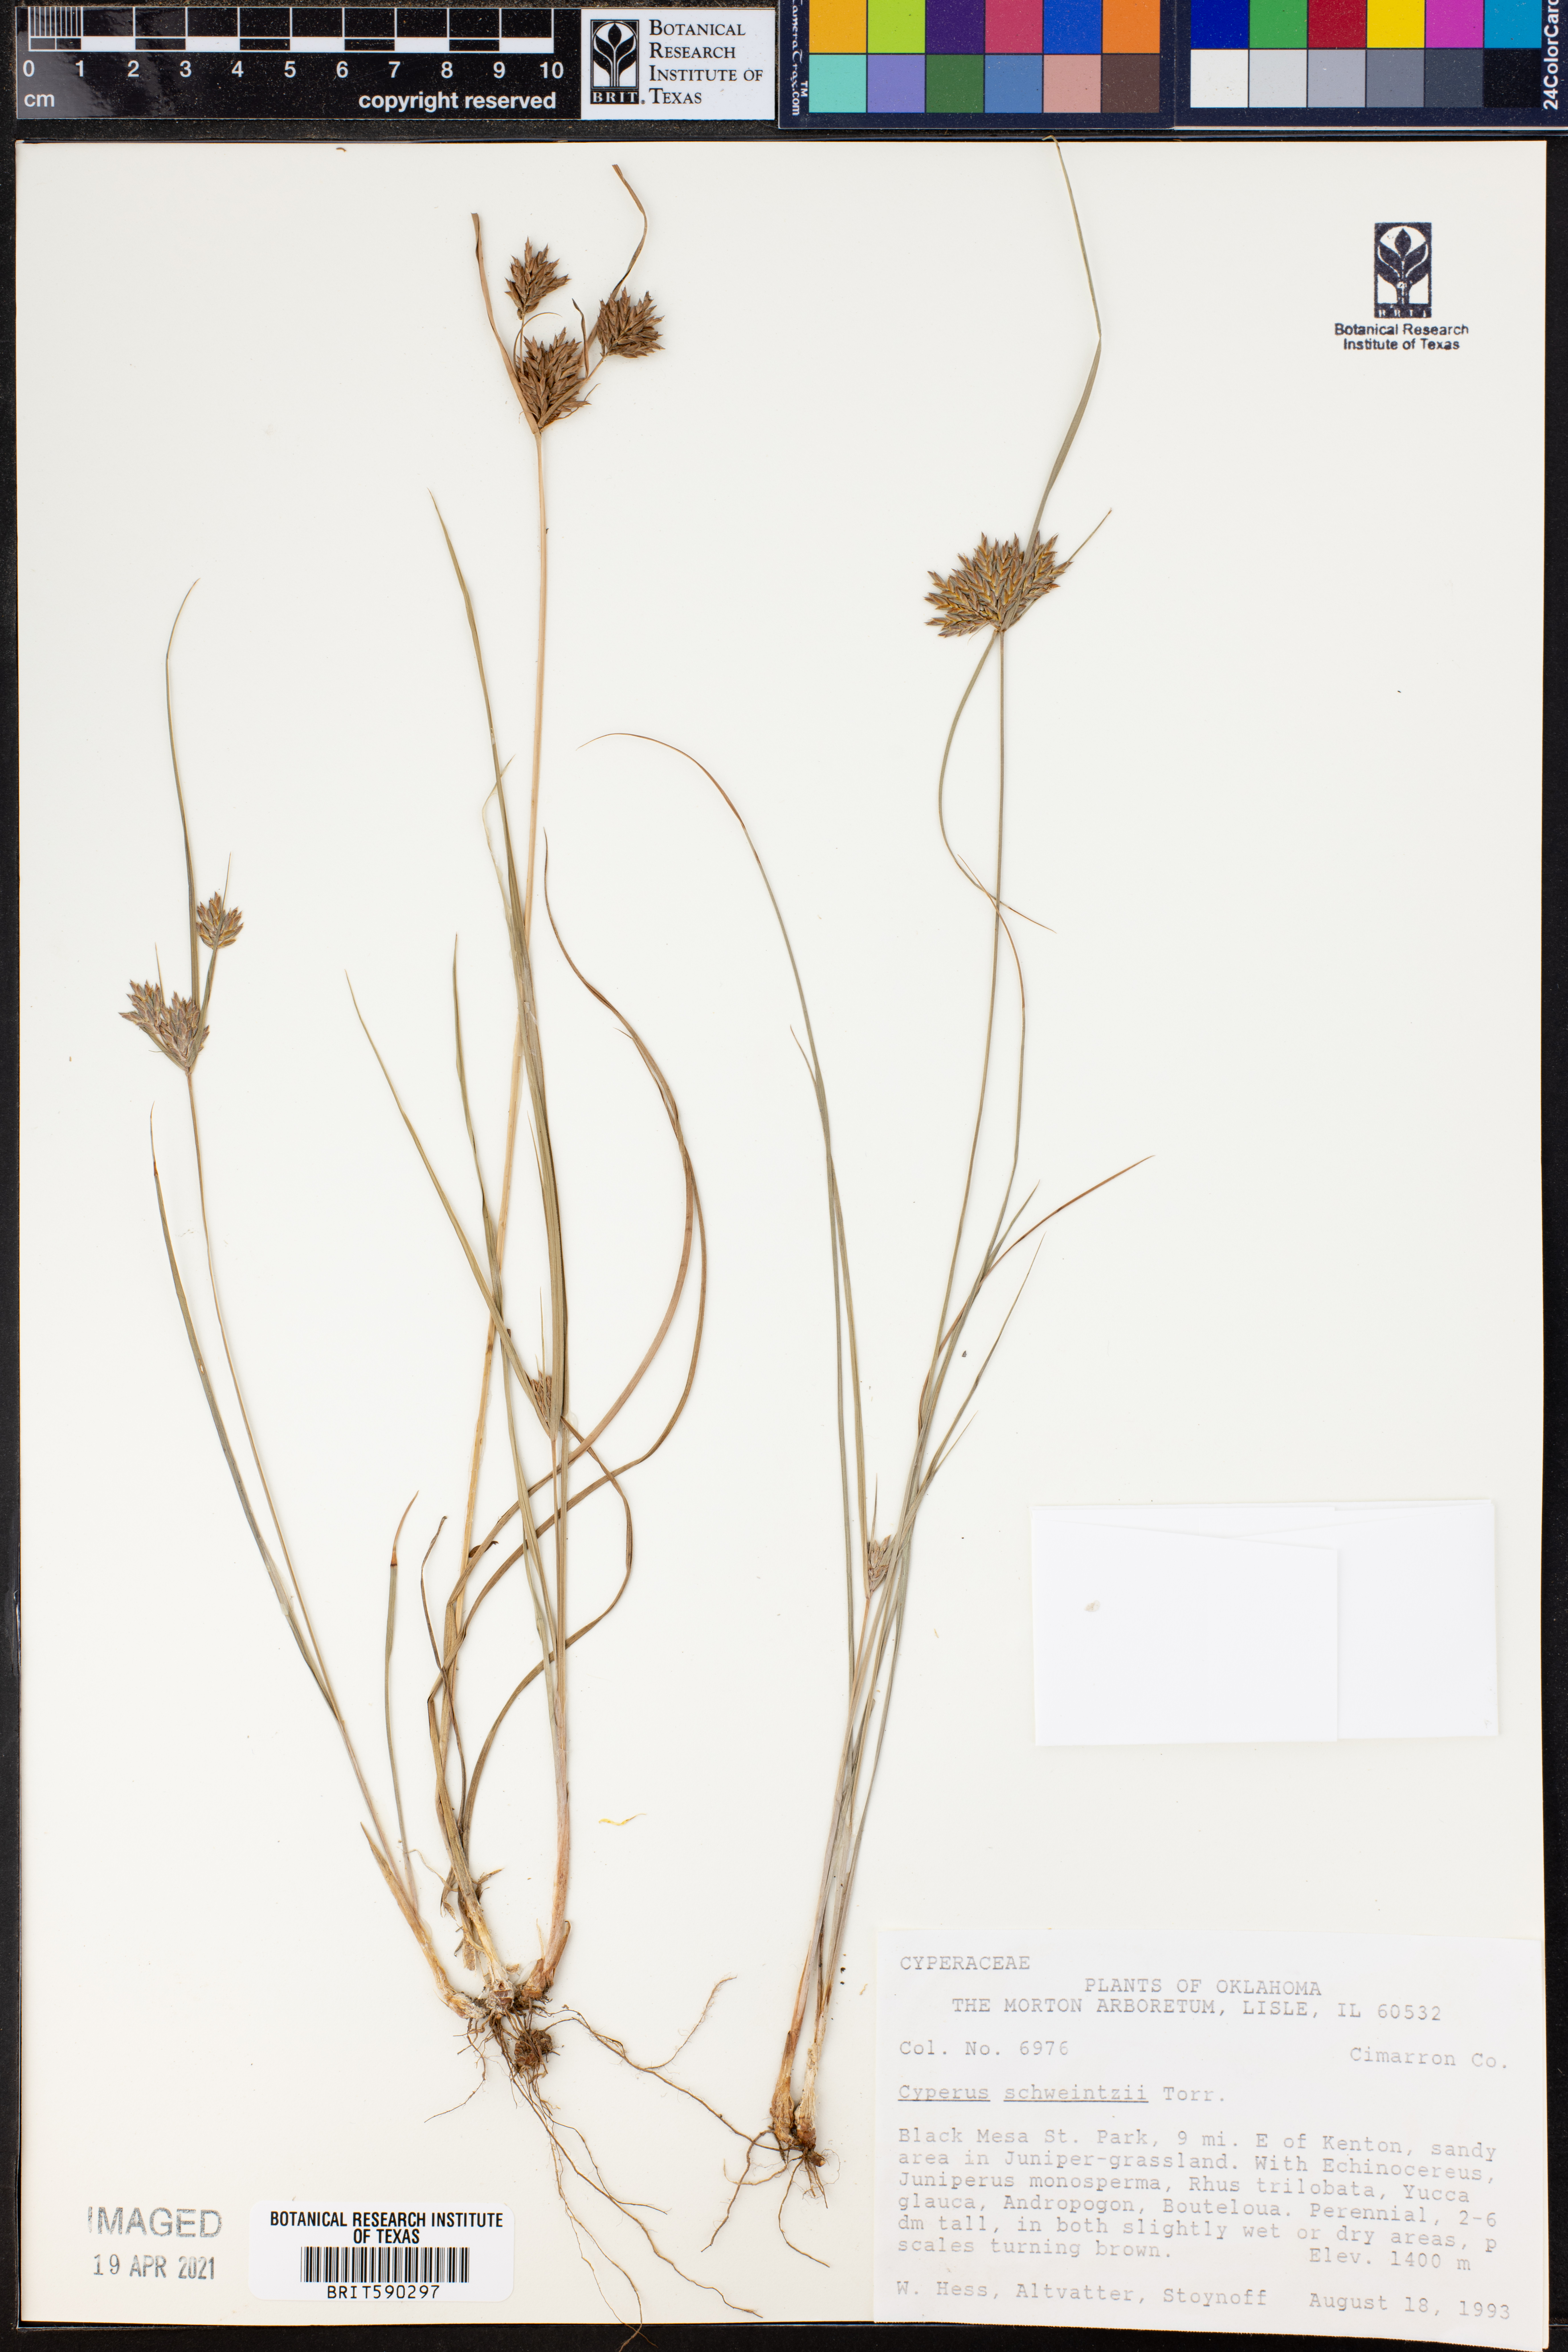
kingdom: Plantae
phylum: Tracheophyta
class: Liliopsida
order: Poales
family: Cyperaceae
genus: Cyperus
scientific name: Cyperus schweinitzii
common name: Schweinitz's cyperus
